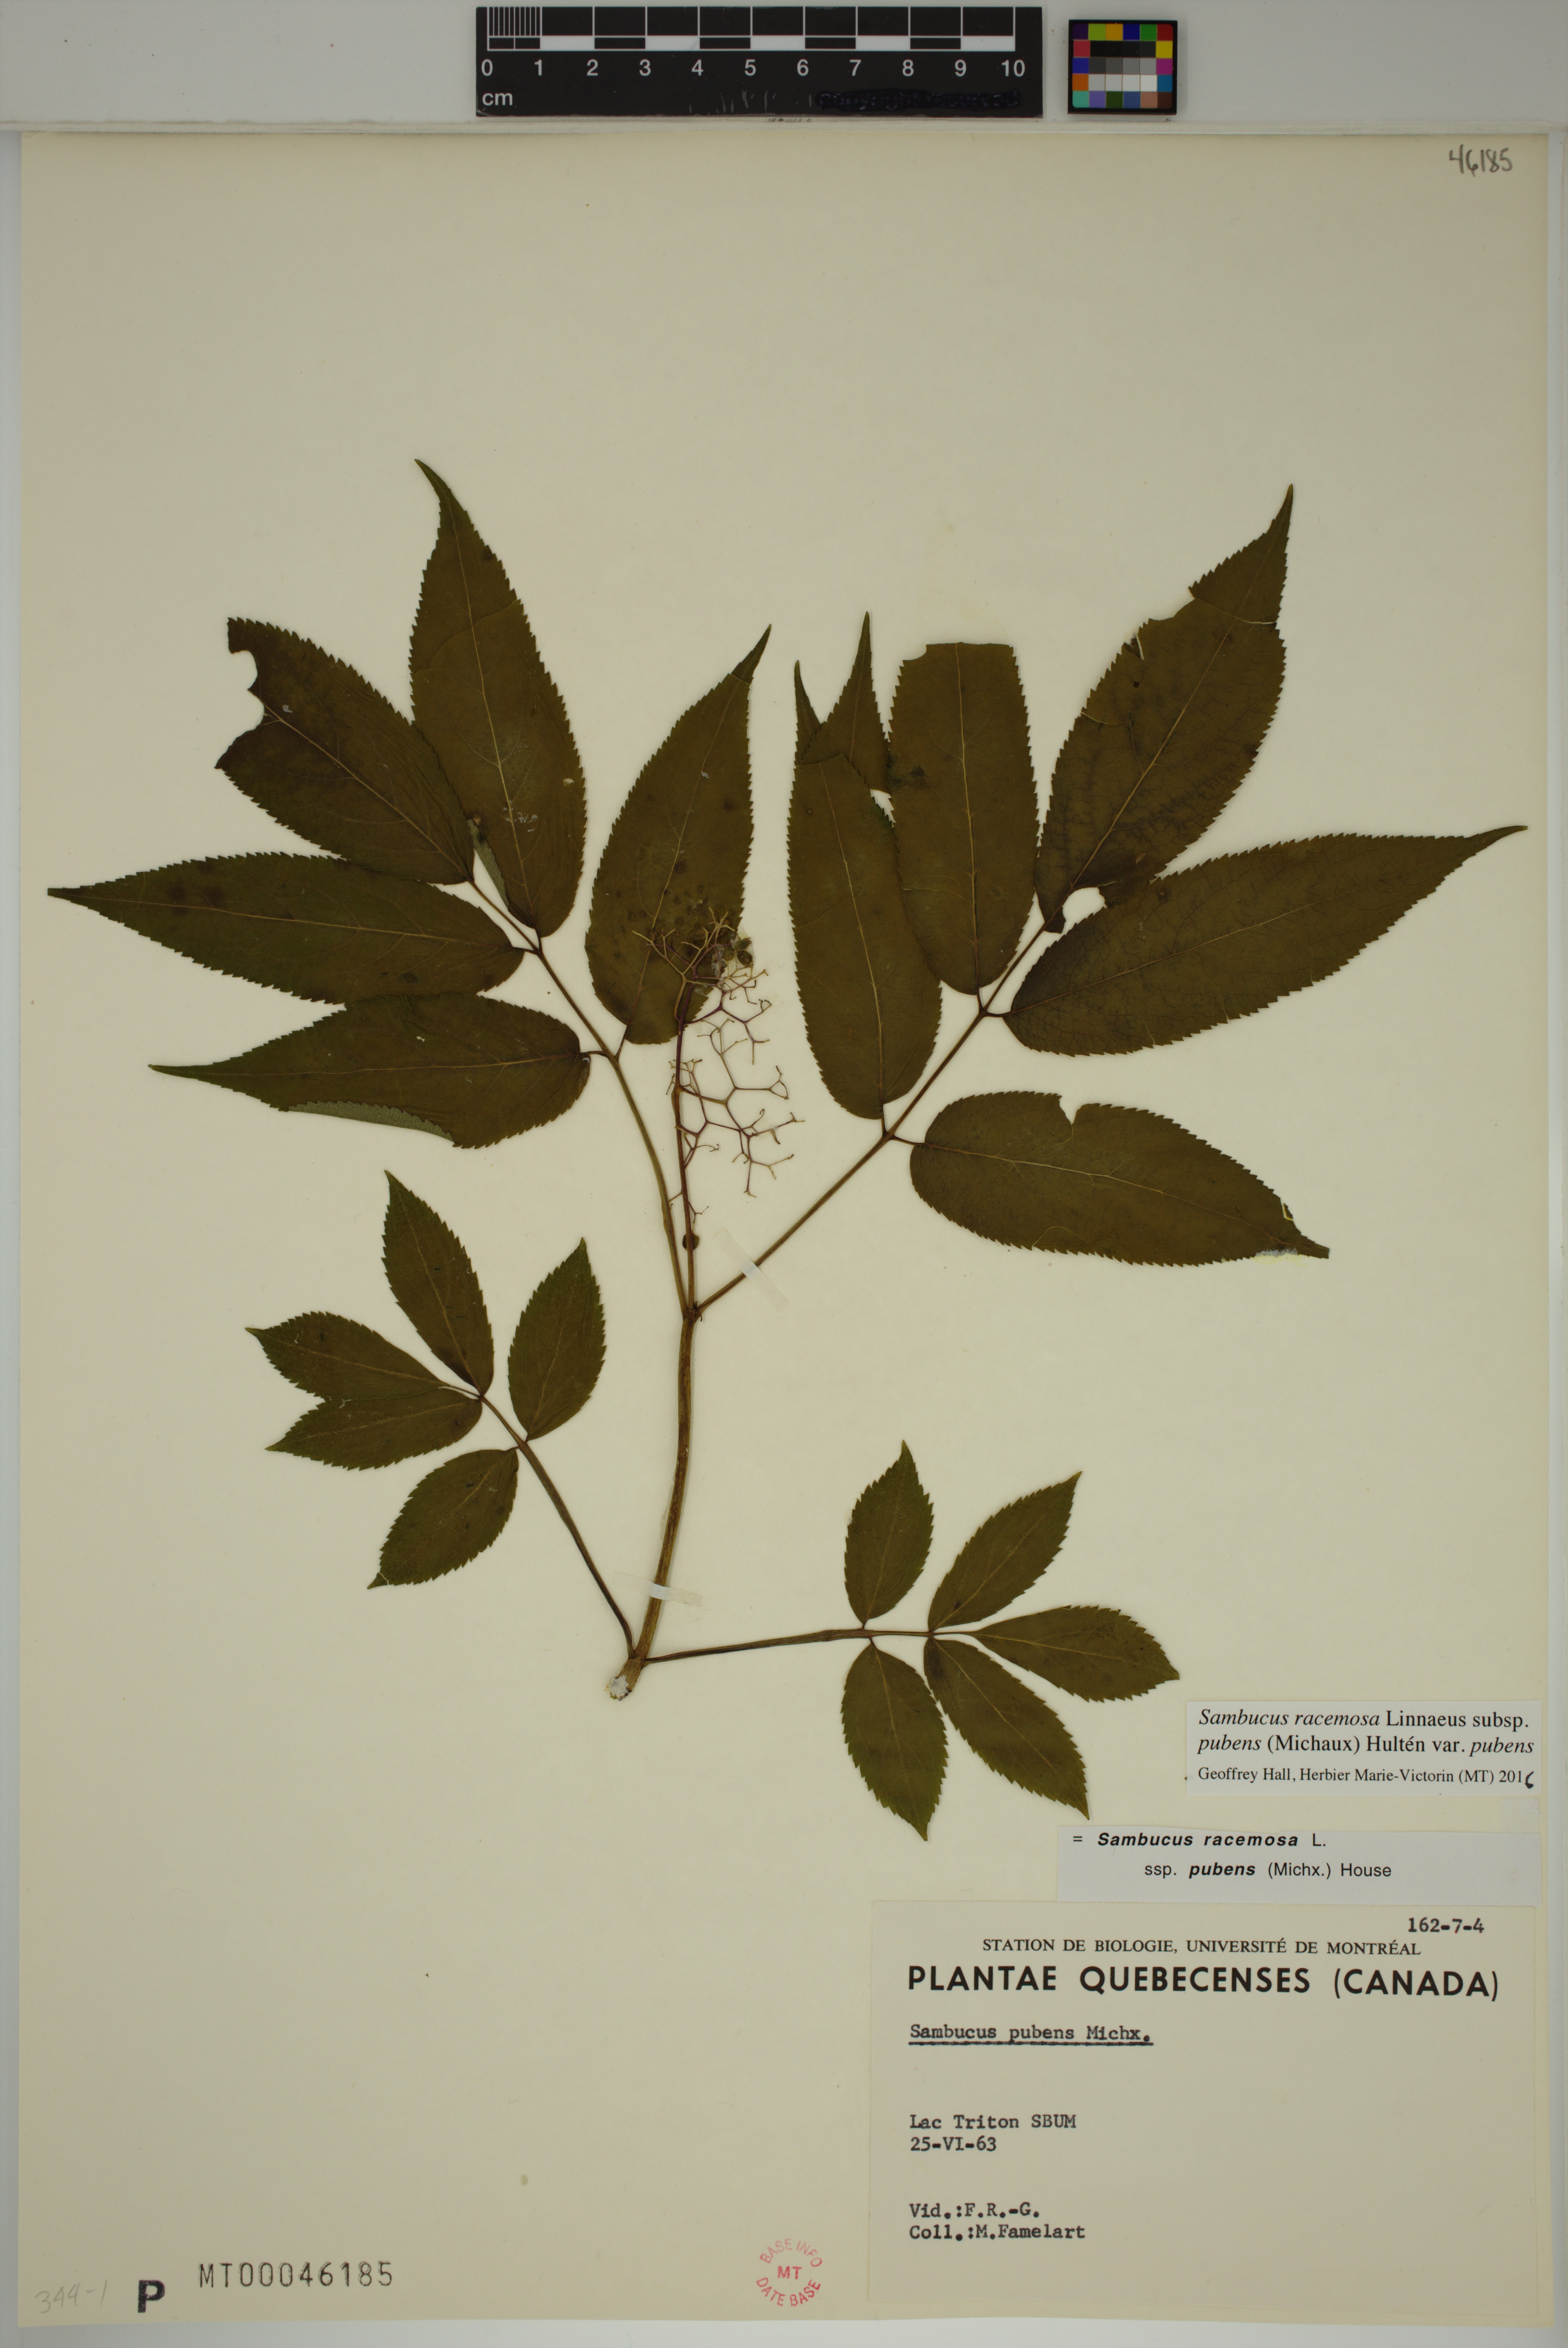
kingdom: Plantae
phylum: Tracheophyta
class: Magnoliopsida
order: Dipsacales
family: Viburnaceae
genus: Sambucus
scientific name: Sambucus racemosa
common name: Red-berried elder
